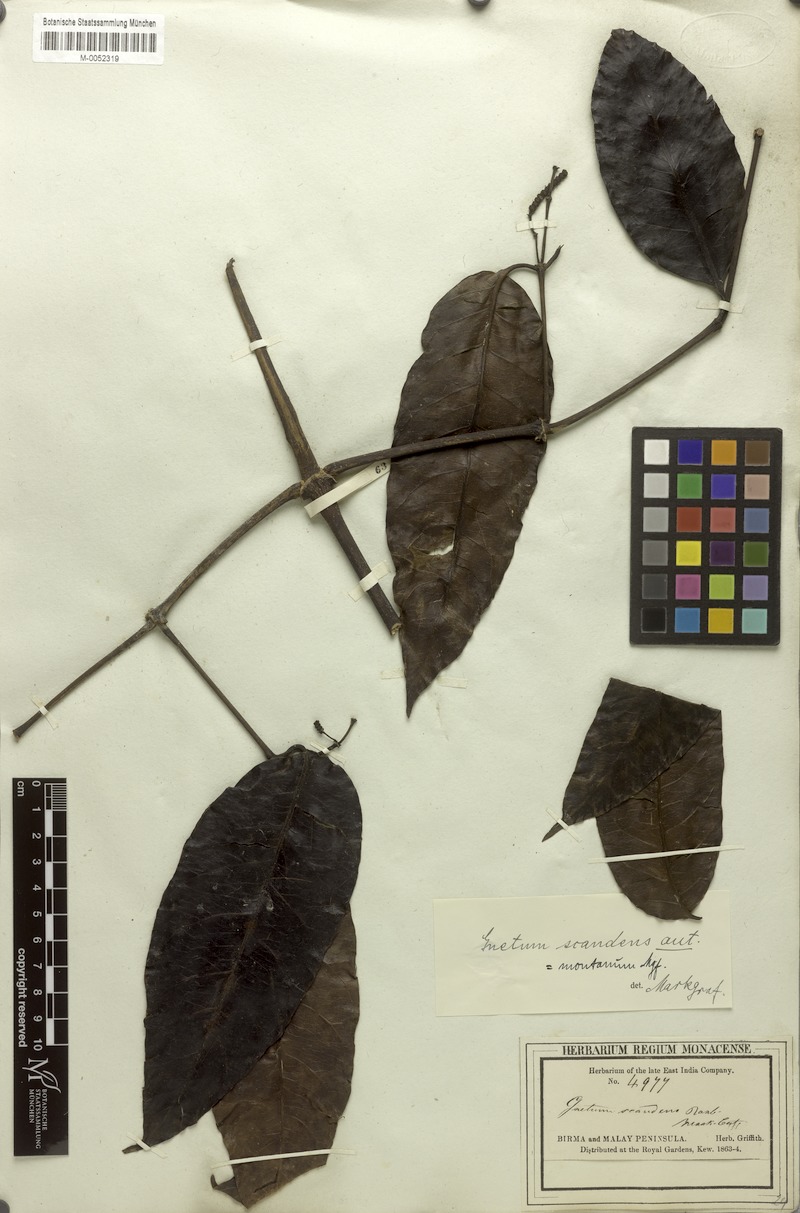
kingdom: Plantae
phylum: Tracheophyta
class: Gnetopsida
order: Gnetales
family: Gnetaceae
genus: Gnetum
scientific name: Gnetum montanum
